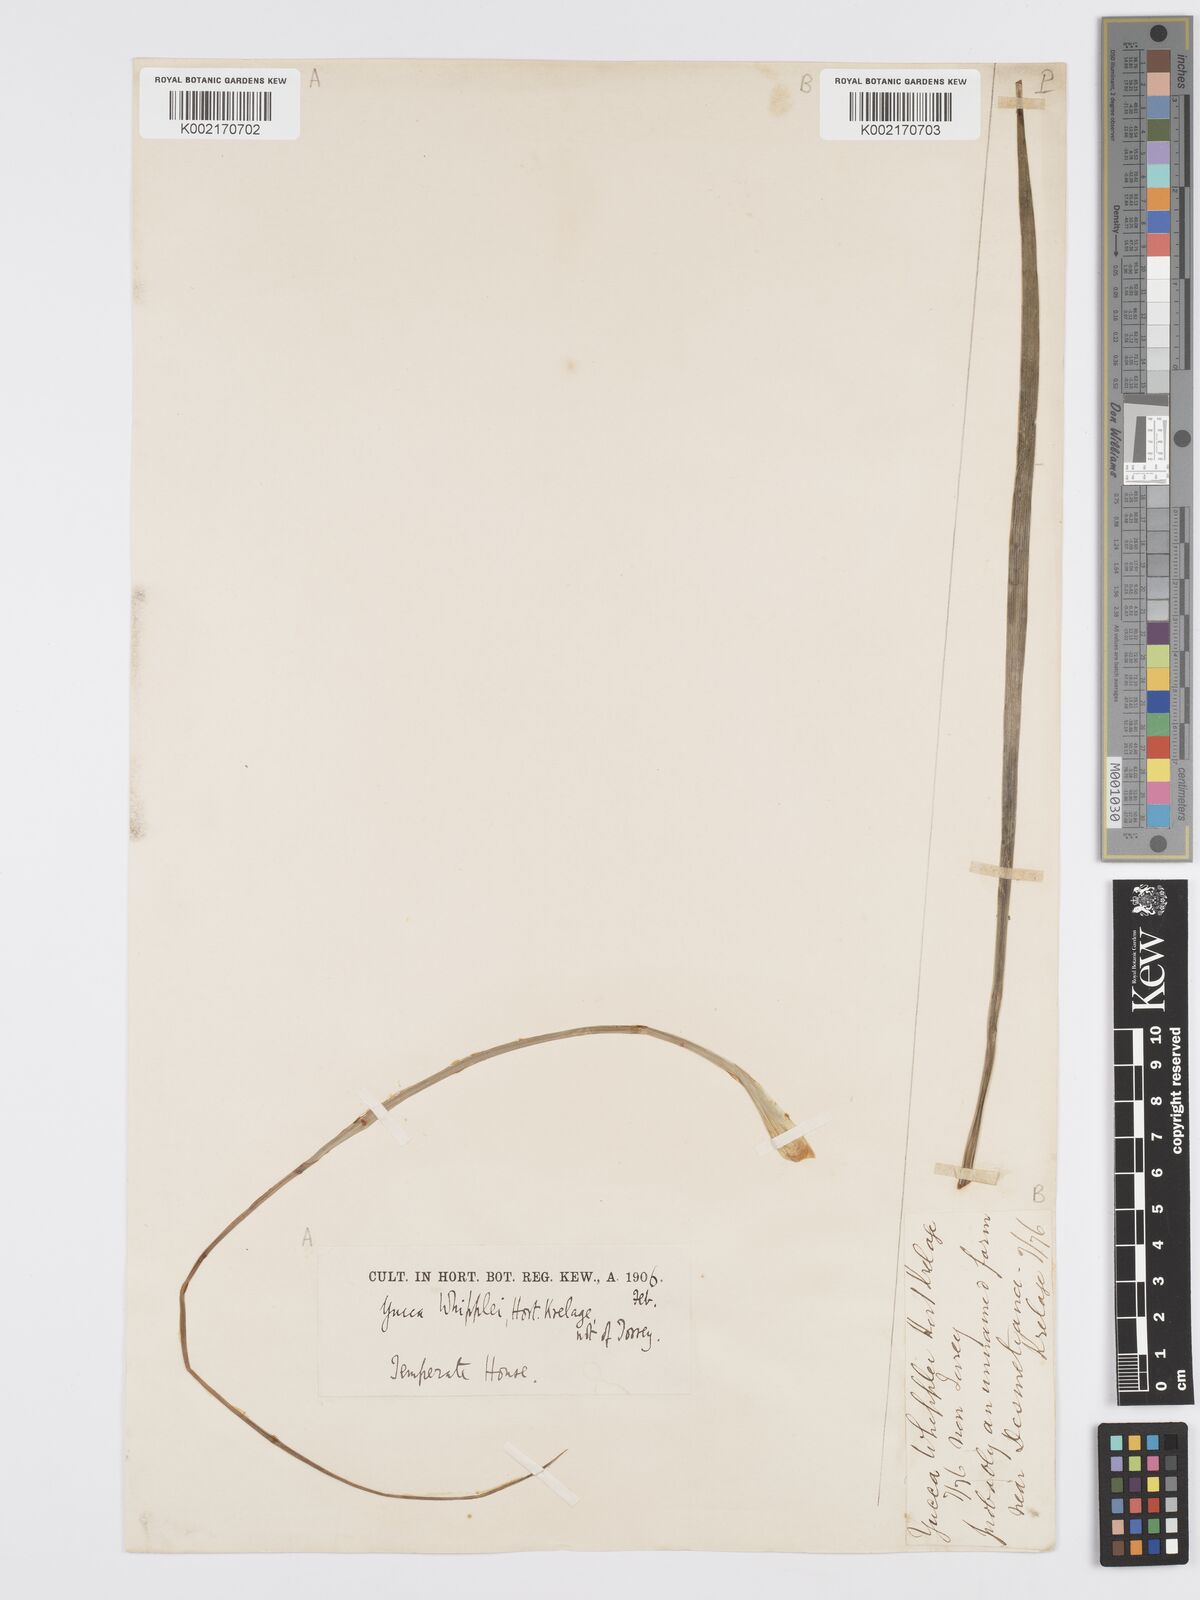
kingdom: Plantae
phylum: Tracheophyta
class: Liliopsida
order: Asparagales
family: Asparagaceae
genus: Hesperoyucca
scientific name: Hesperoyucca whipplei
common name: Our lord's-candle
